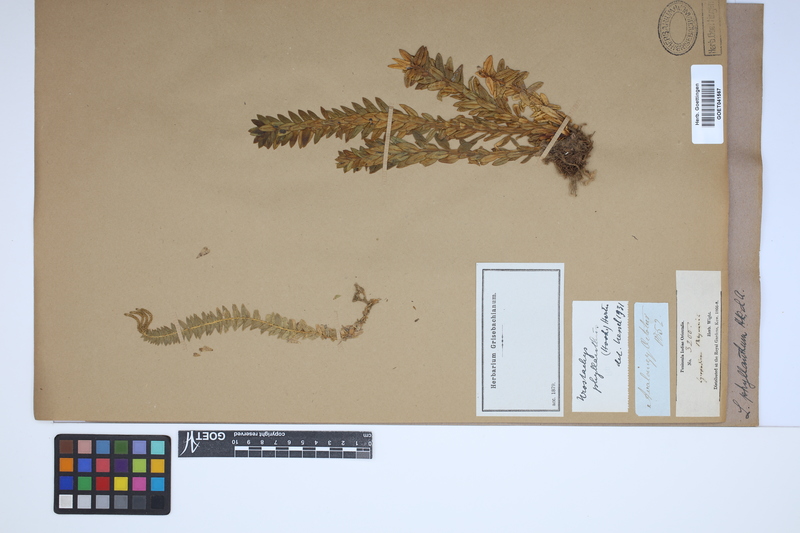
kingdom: Plantae
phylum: Tracheophyta
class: Lycopodiopsida
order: Lycopodiales
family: Lycopodiaceae
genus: Phlegmariurus
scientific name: Phlegmariurus phyllanthus
